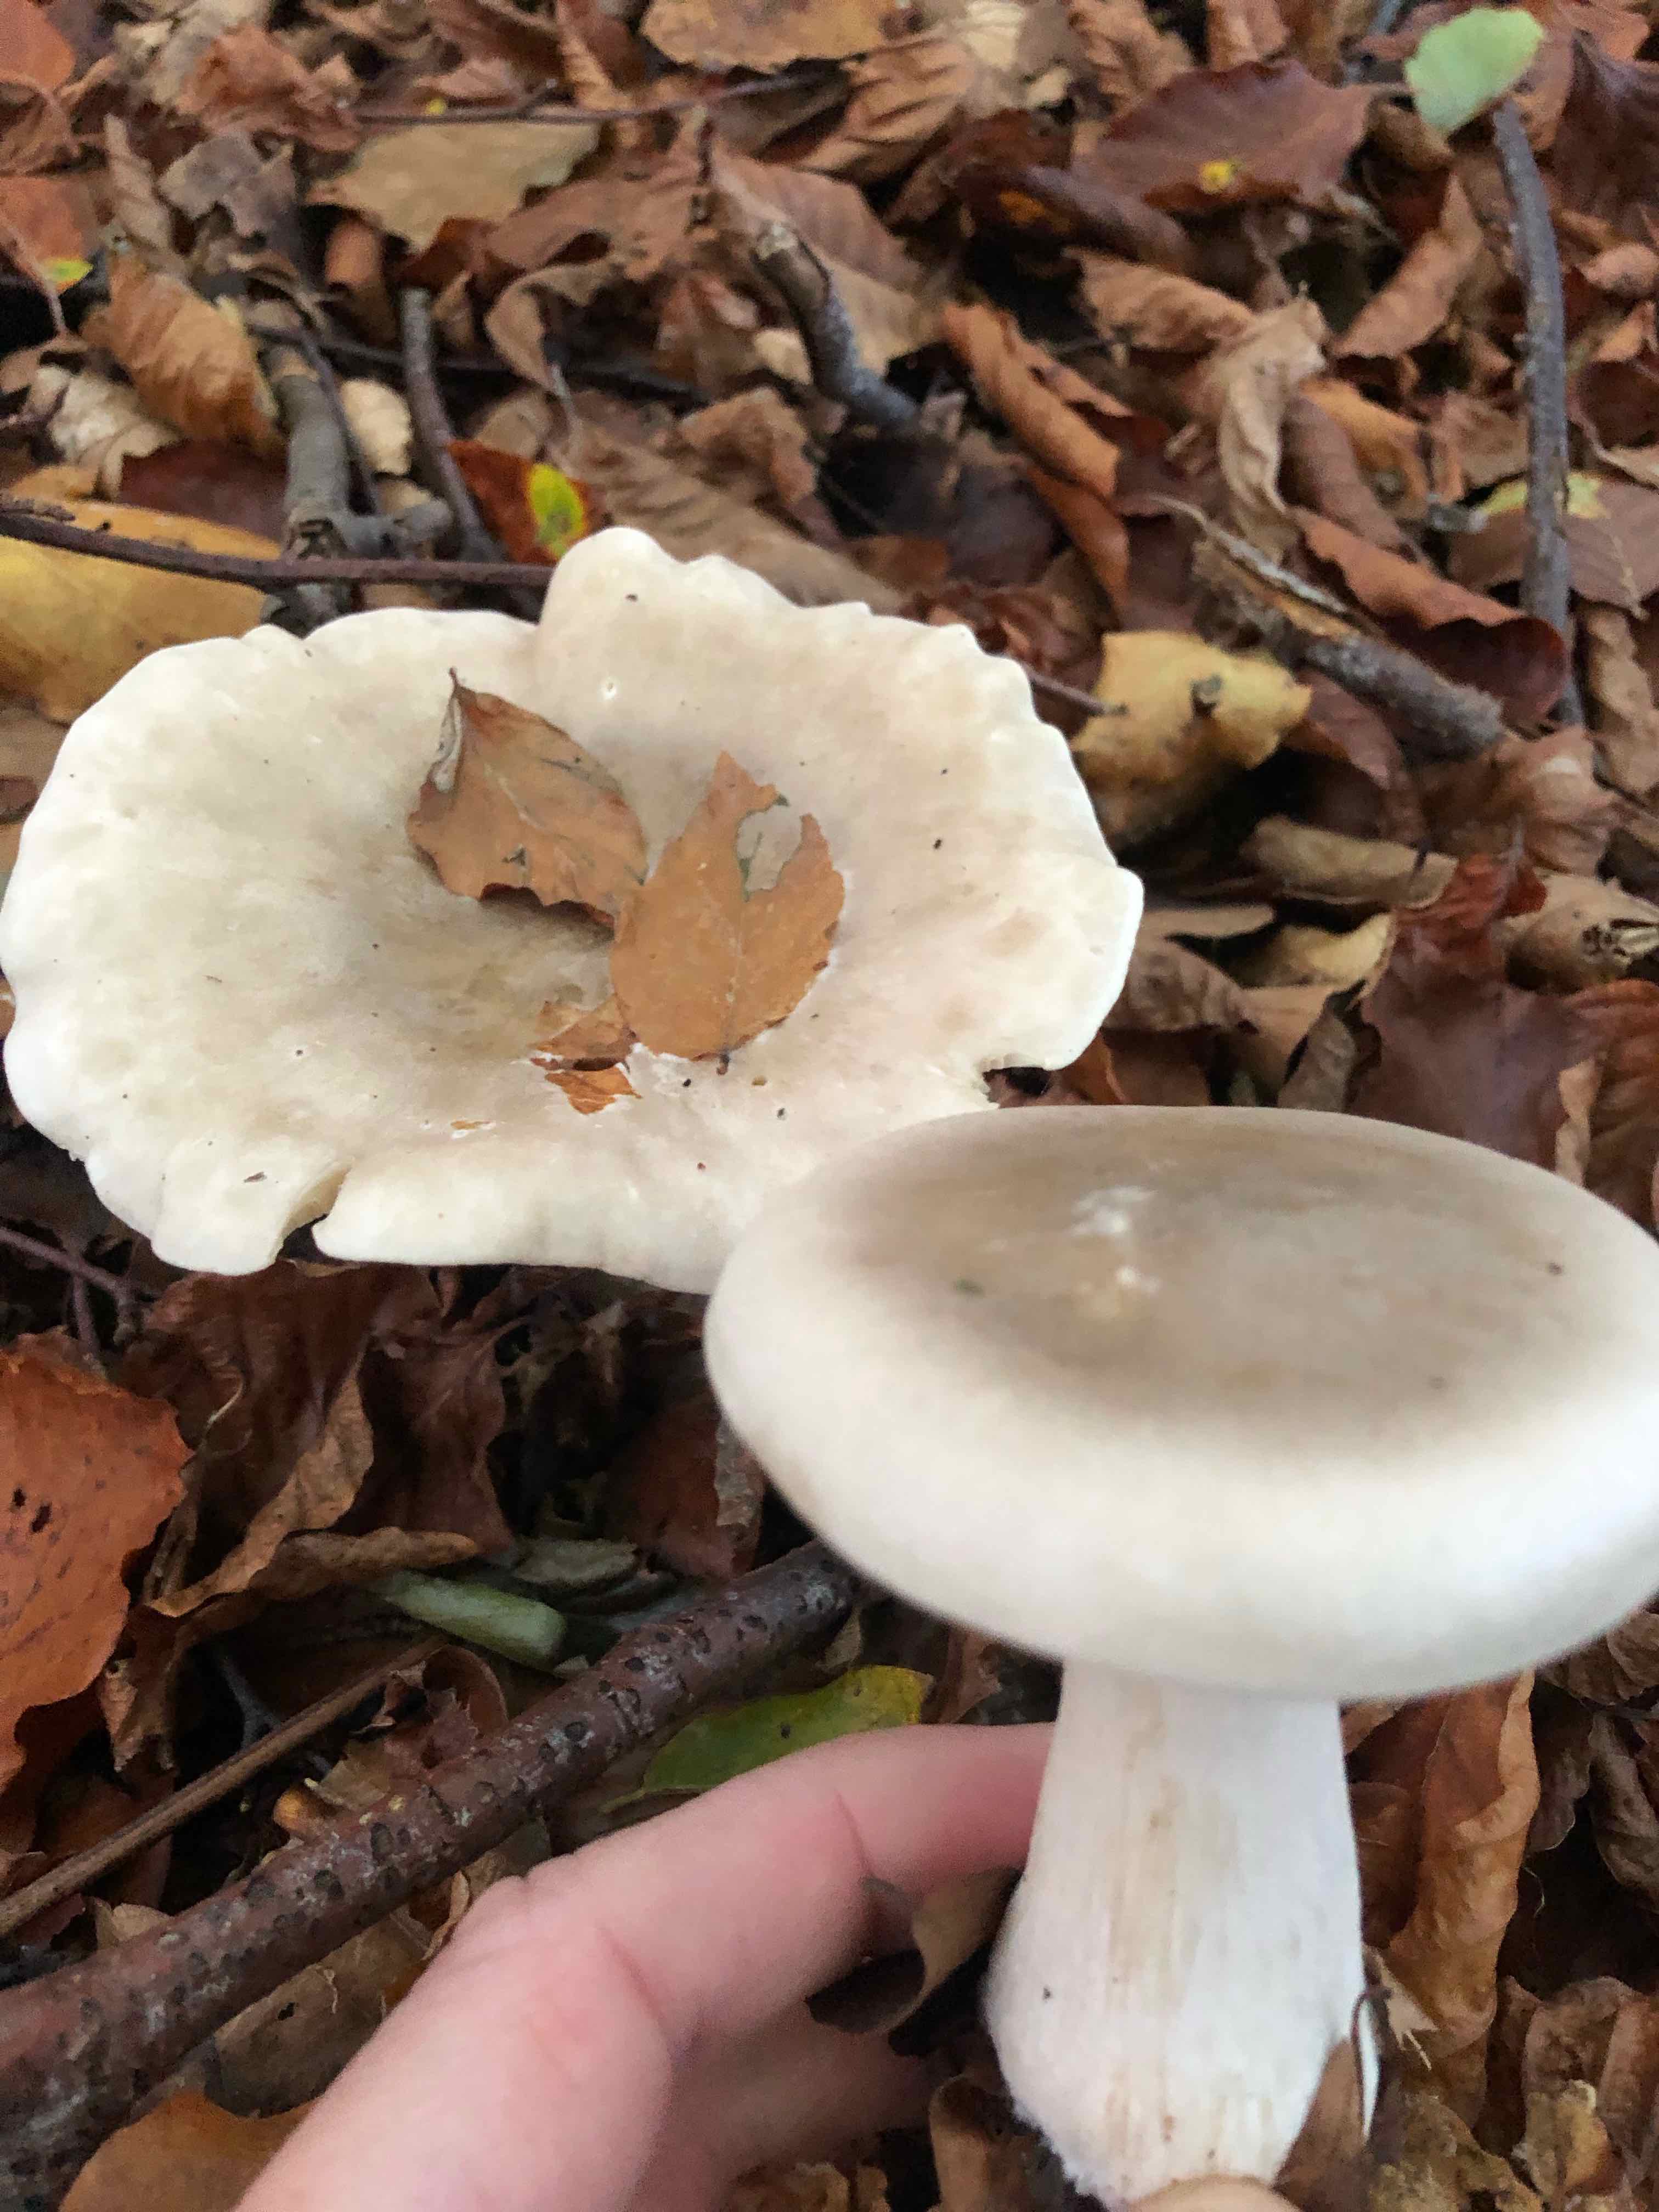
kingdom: Fungi
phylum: Basidiomycota
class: Agaricomycetes
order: Agaricales
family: Tricholomataceae
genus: Clitocybe
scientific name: Clitocybe nebularis
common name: tåge-tragthat
